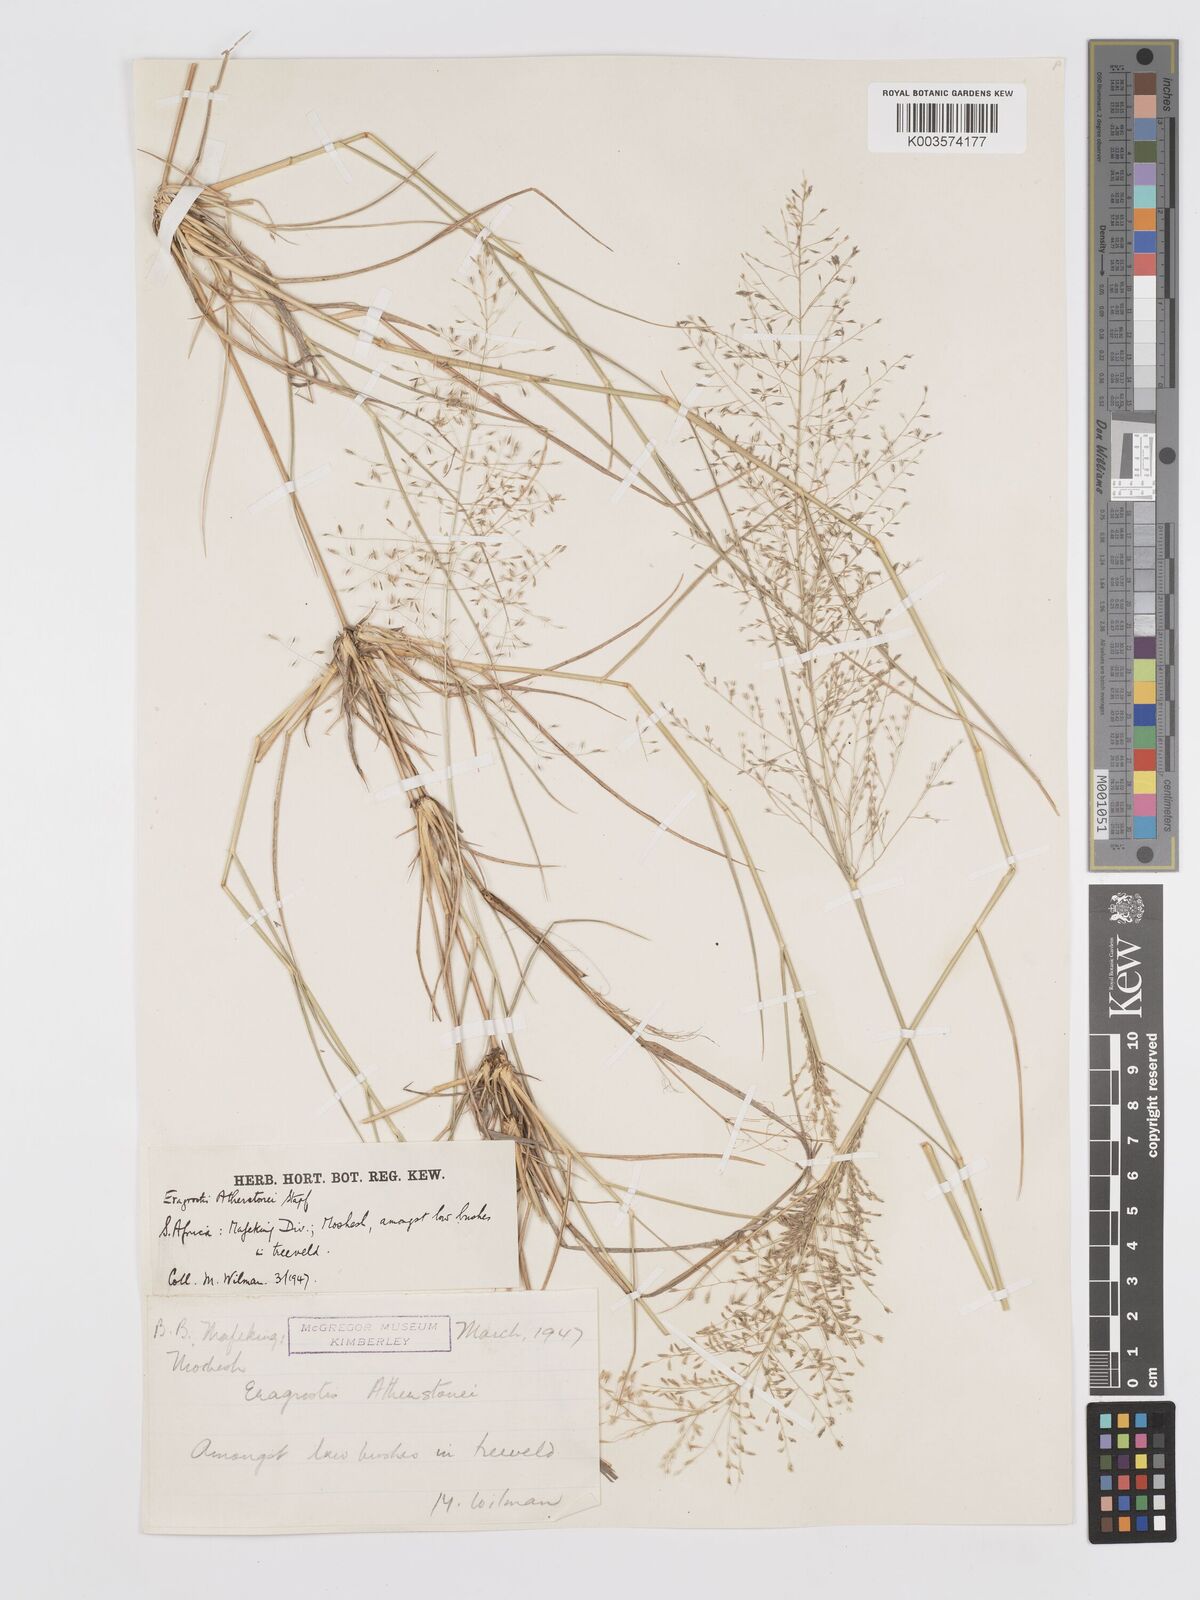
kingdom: Plantae
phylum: Tracheophyta
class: Liliopsida
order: Poales
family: Poaceae
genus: Eragrostis
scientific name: Eragrostis cylindriflora
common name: Cylinderflower lovegrass
